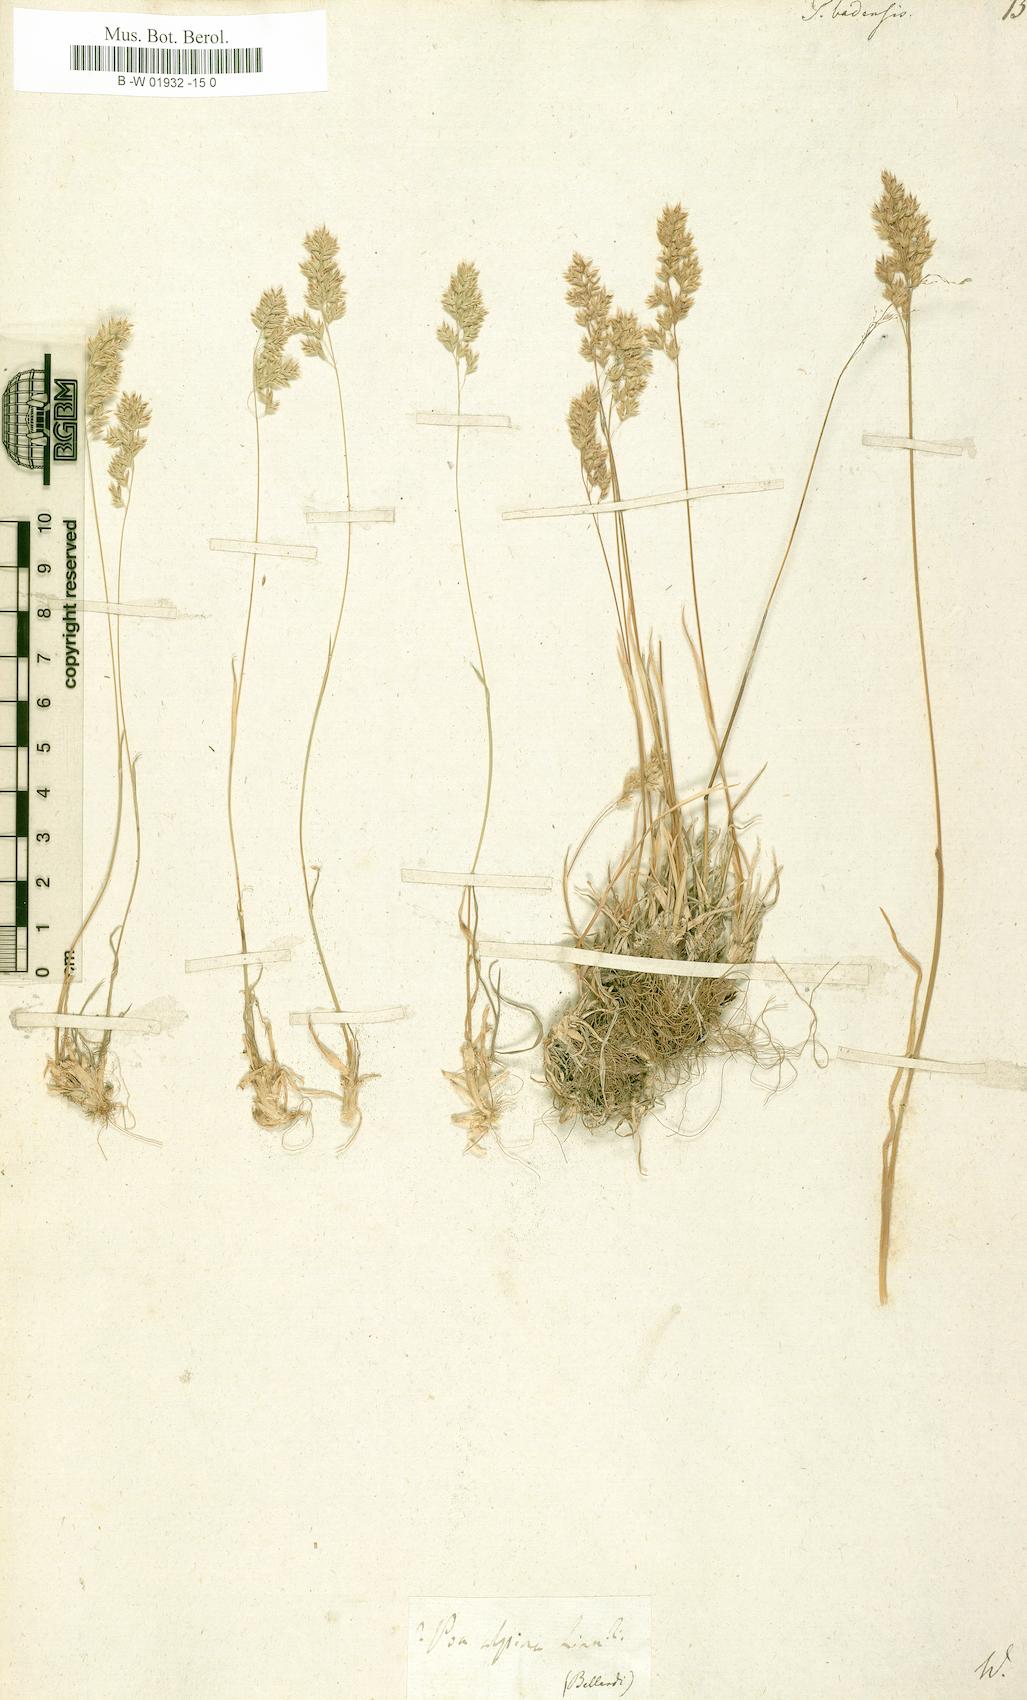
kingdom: Plantae
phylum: Tracheophyta
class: Liliopsida
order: Poales
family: Poaceae
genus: Poa
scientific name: Poa badensis
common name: Baden's bluegrass
